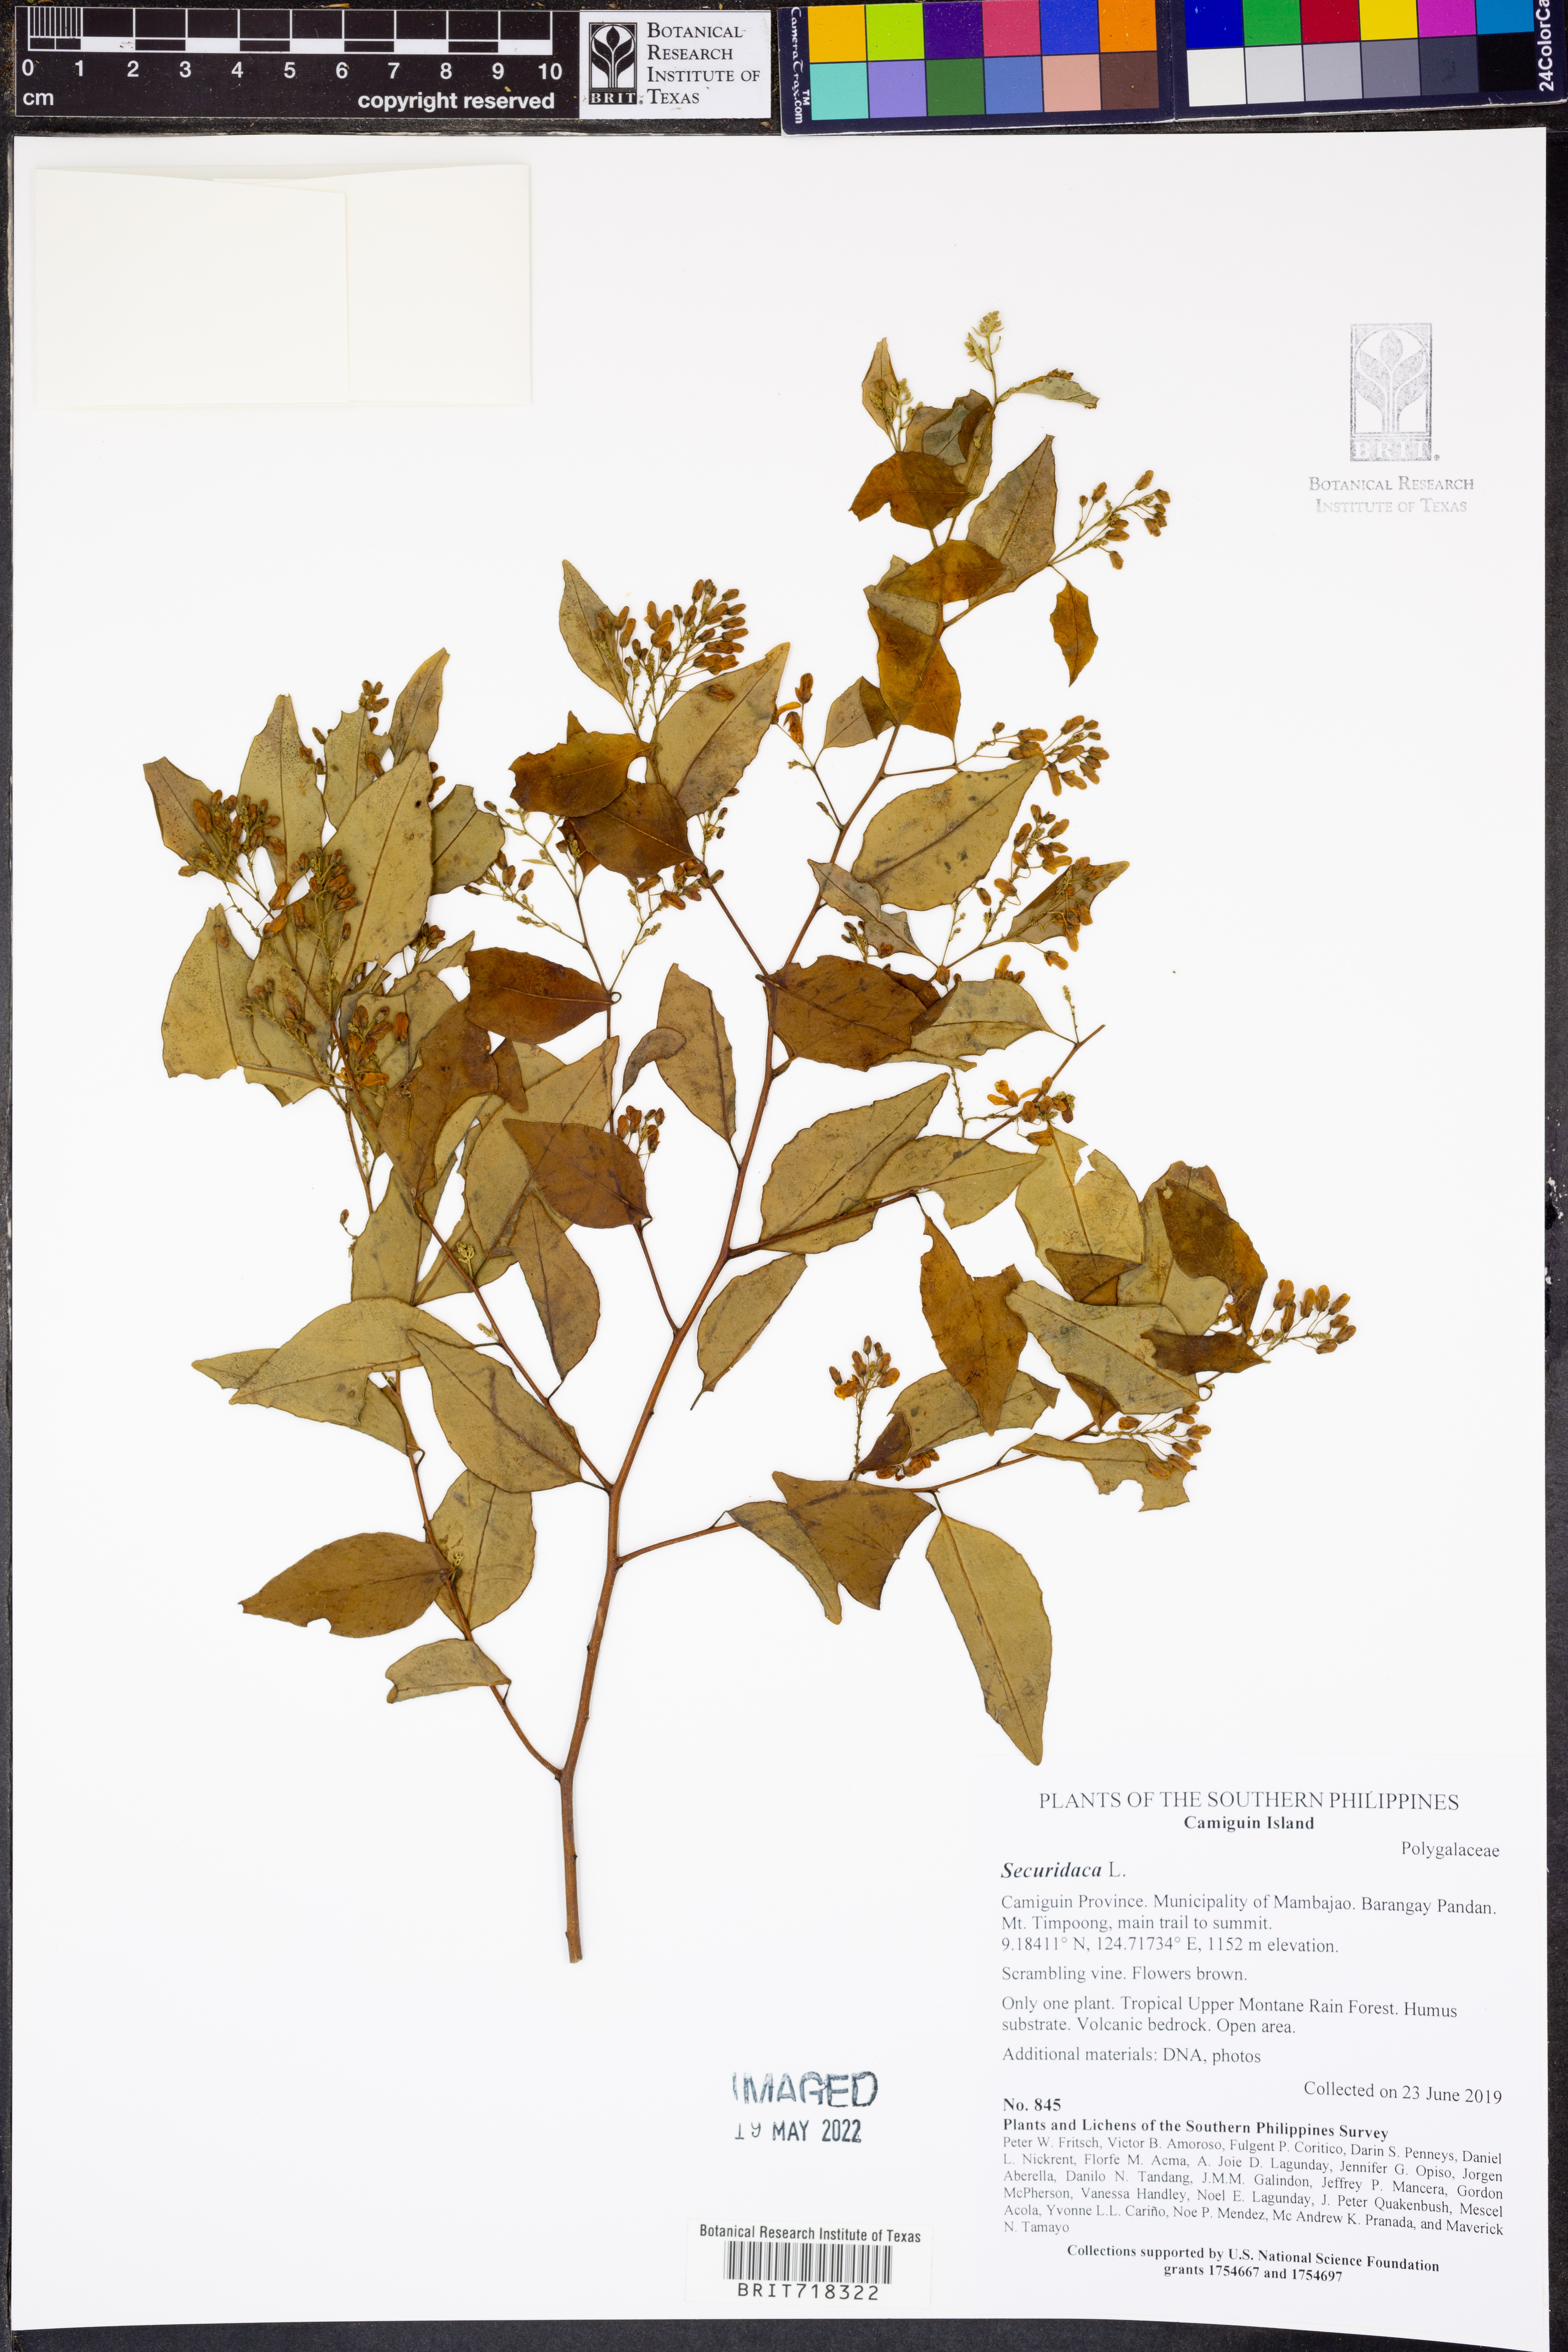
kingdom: Plantae
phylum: Tracheophyta
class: Magnoliopsida
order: Fabales
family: Polygalaceae
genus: Securidaca
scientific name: Securidaca
